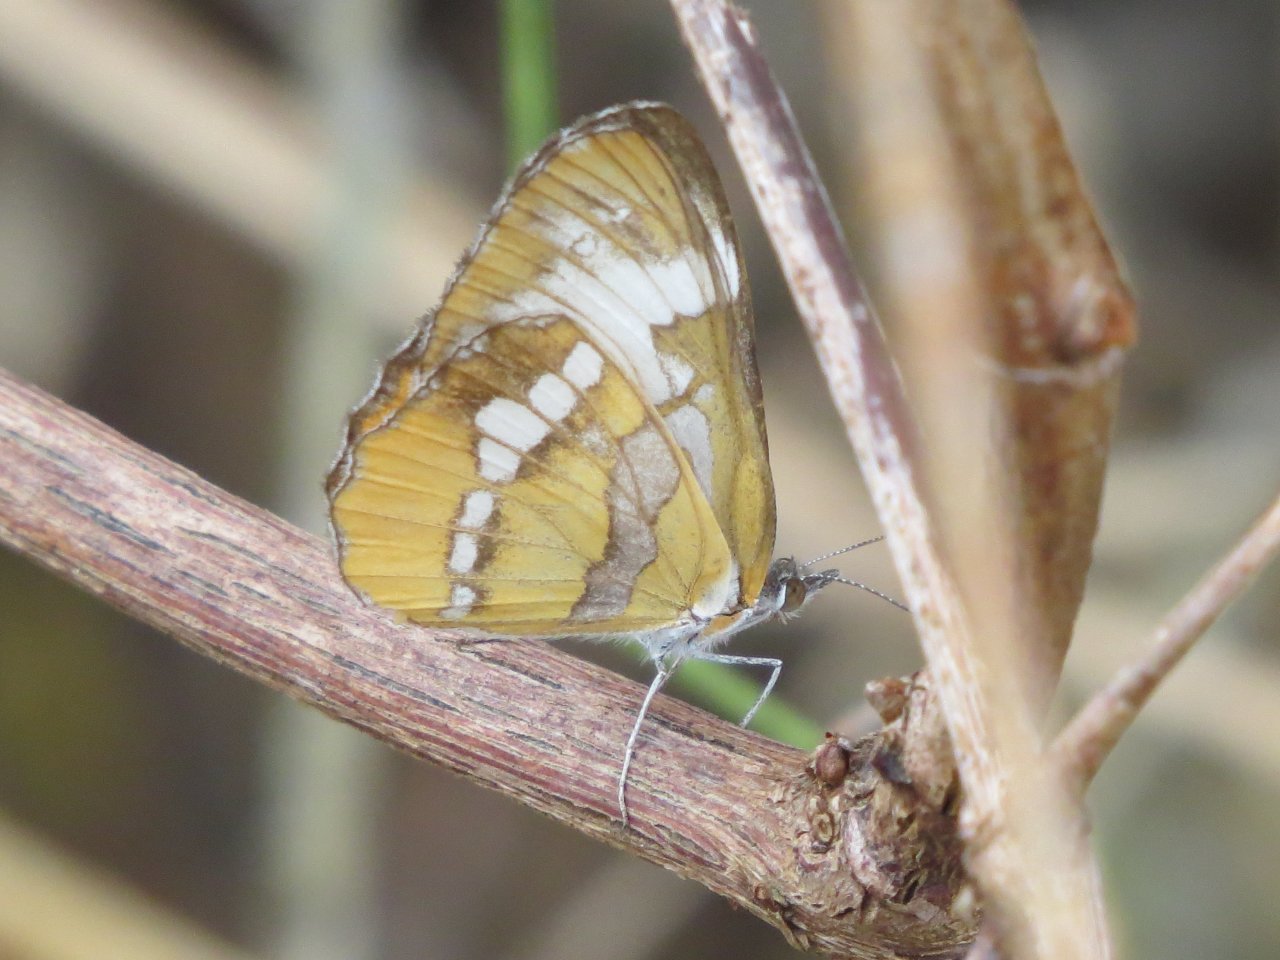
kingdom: Animalia
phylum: Arthropoda
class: Insecta
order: Lepidoptera
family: Nymphalidae
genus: Mestra
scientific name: Mestra amymone
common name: Common Mestra
